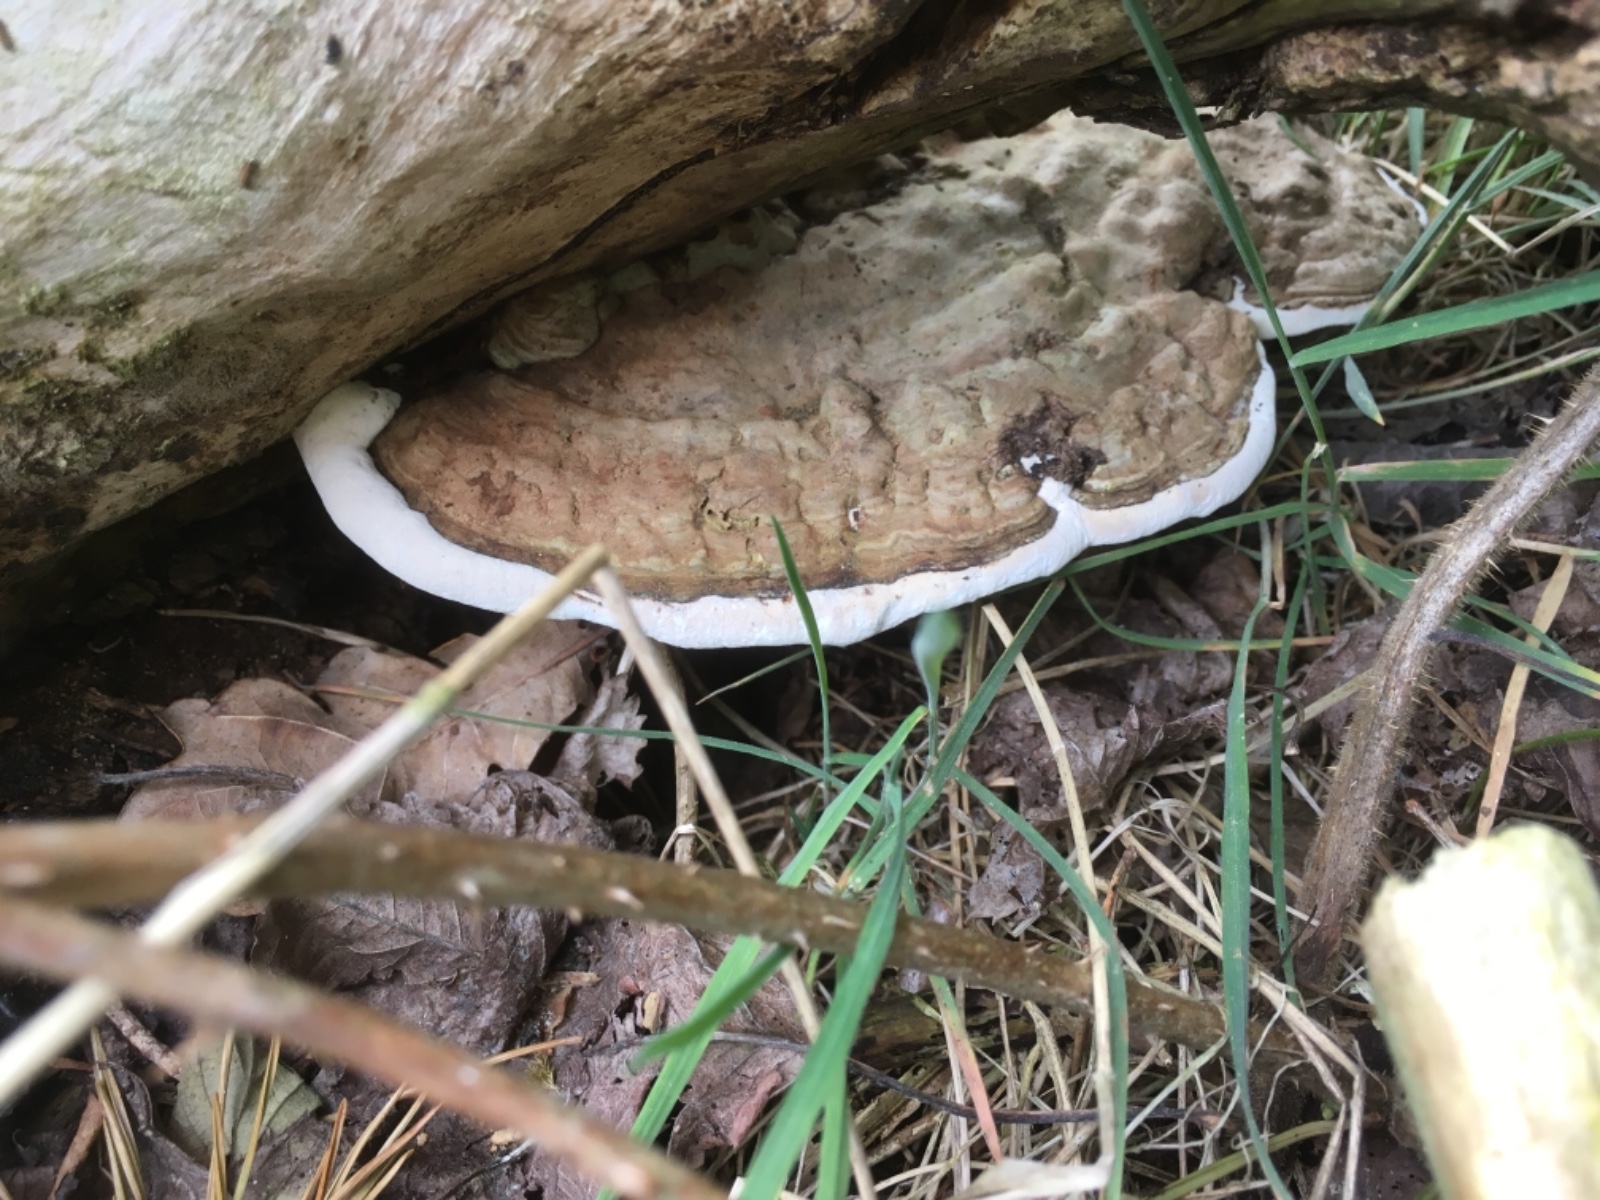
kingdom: Fungi
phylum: Basidiomycota
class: Agaricomycetes
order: Polyporales
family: Polyporaceae
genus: Ganoderma
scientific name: Ganoderma applanatum
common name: flad lakporesvamp
